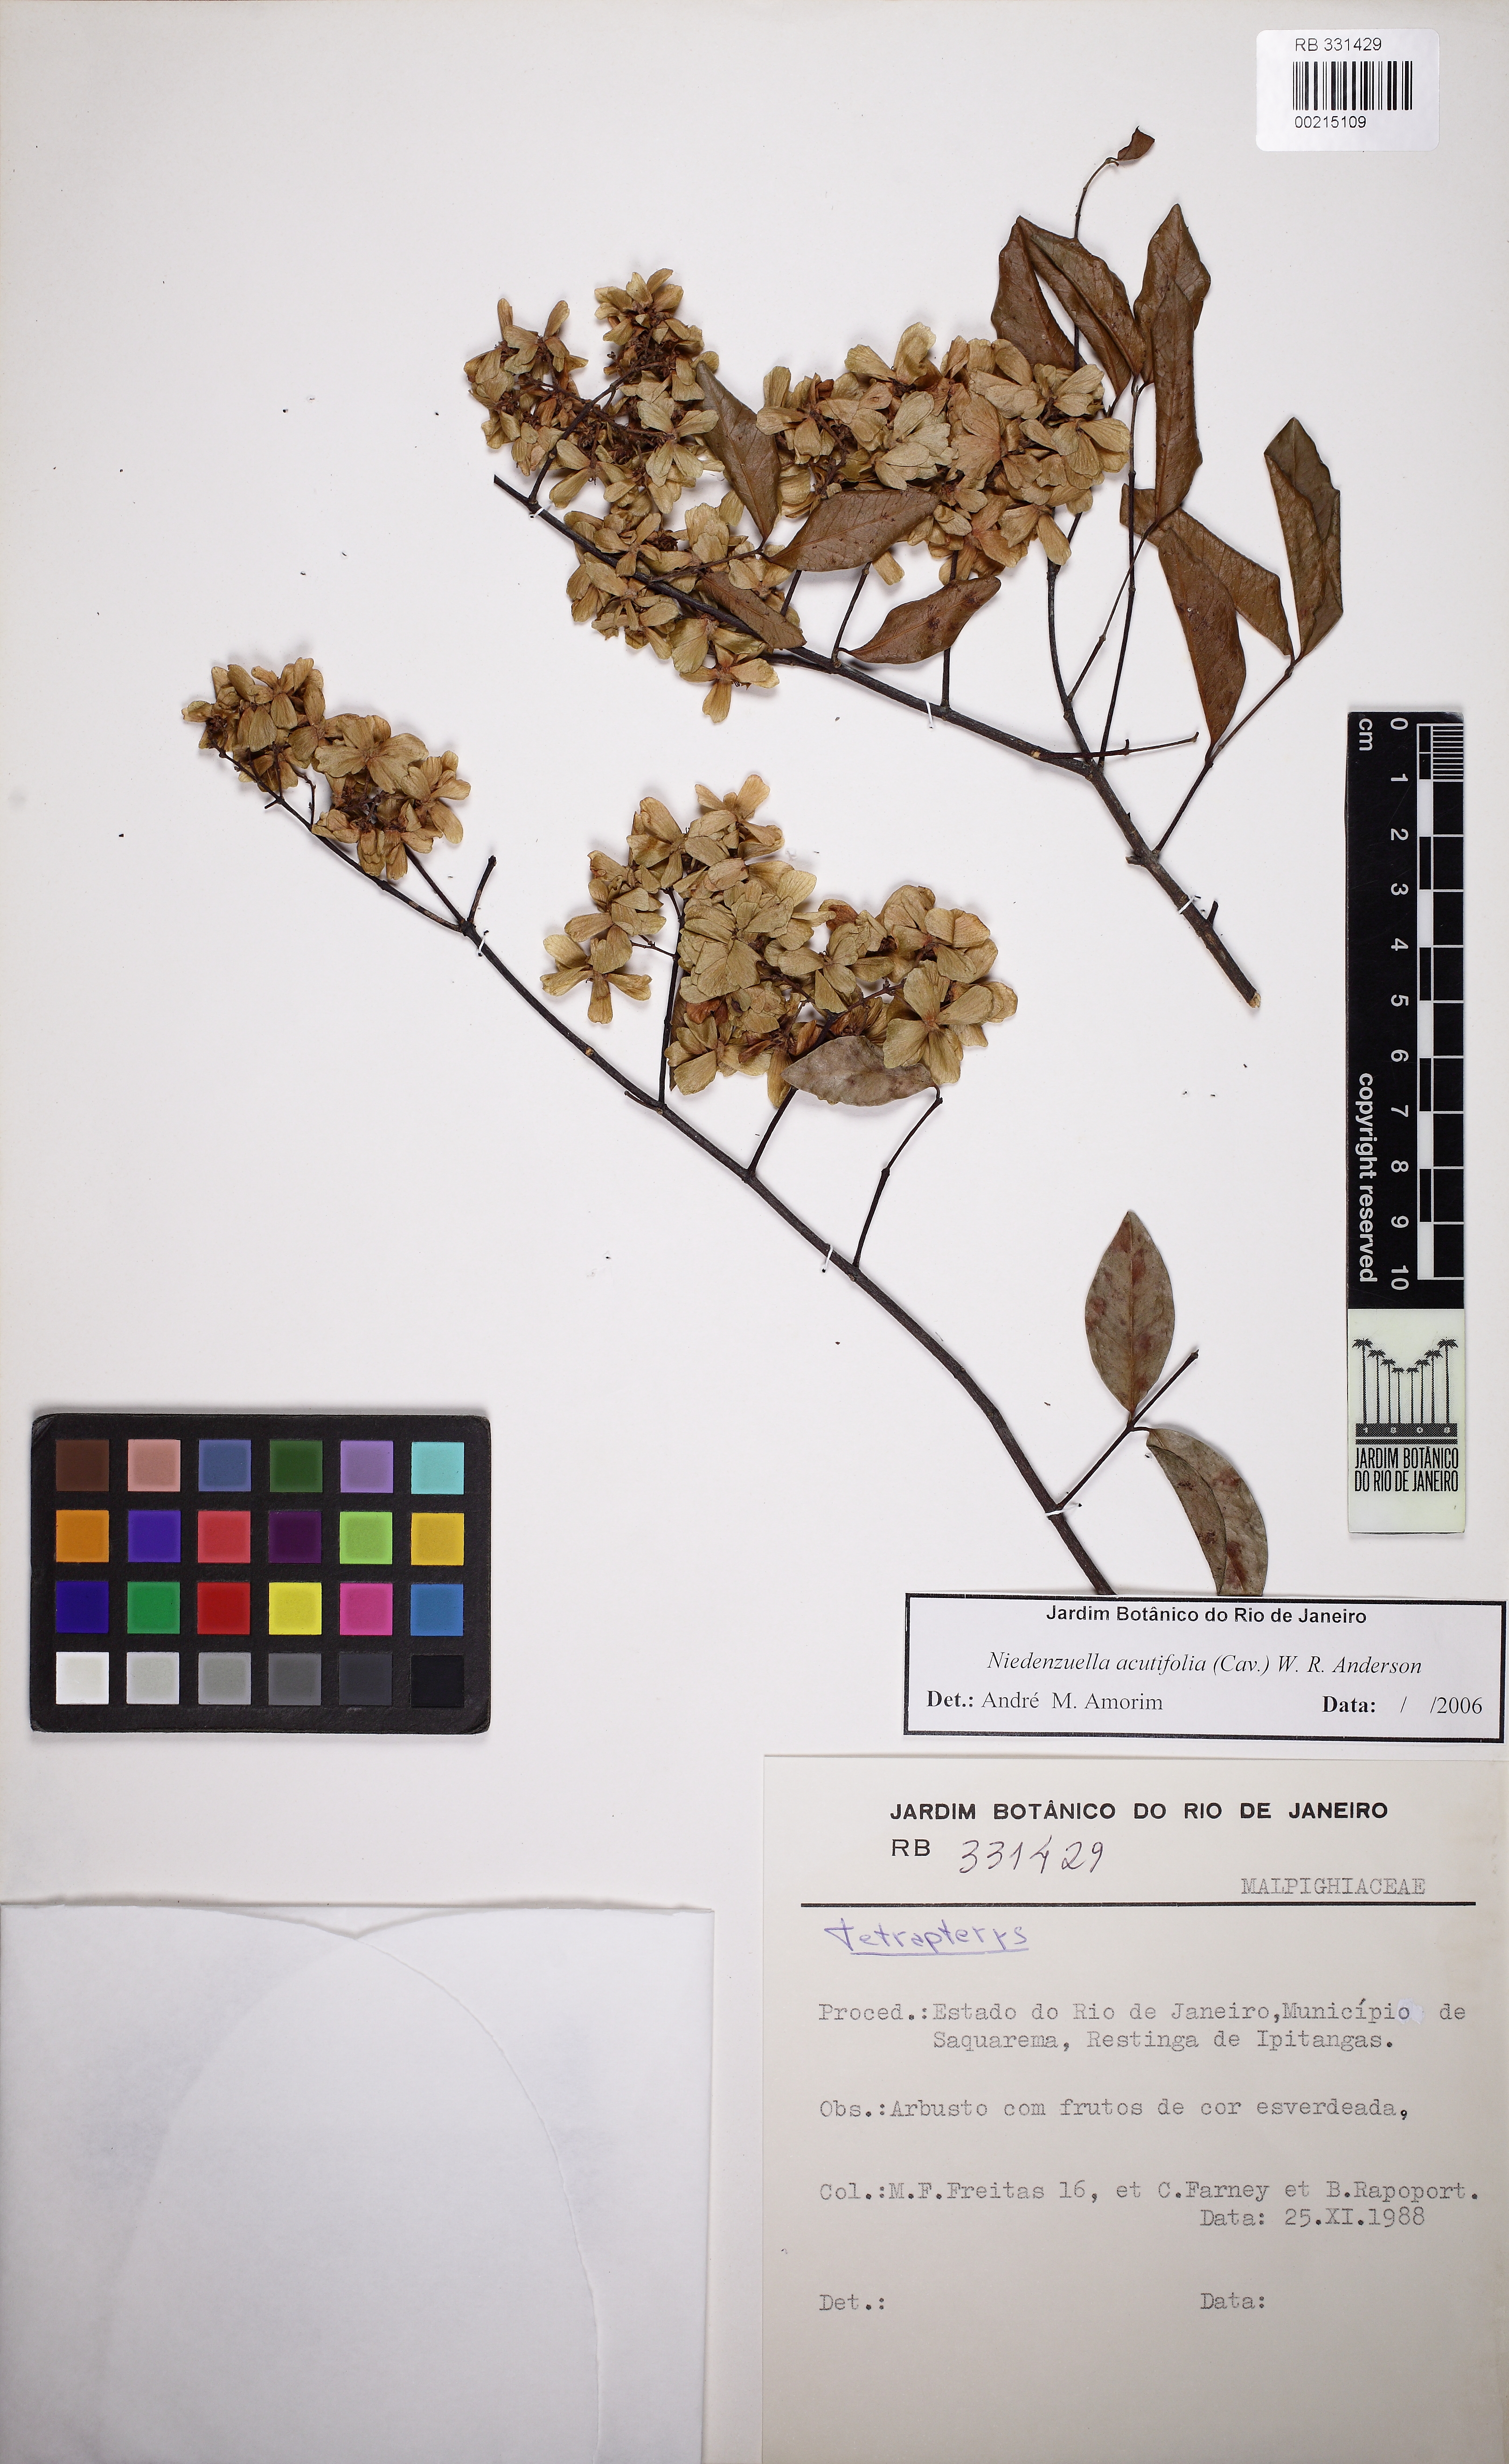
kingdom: Plantae
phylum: Tracheophyta
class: Magnoliopsida
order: Malpighiales
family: Malpighiaceae
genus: Niedenzuella
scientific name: Niedenzuella acutifolia
